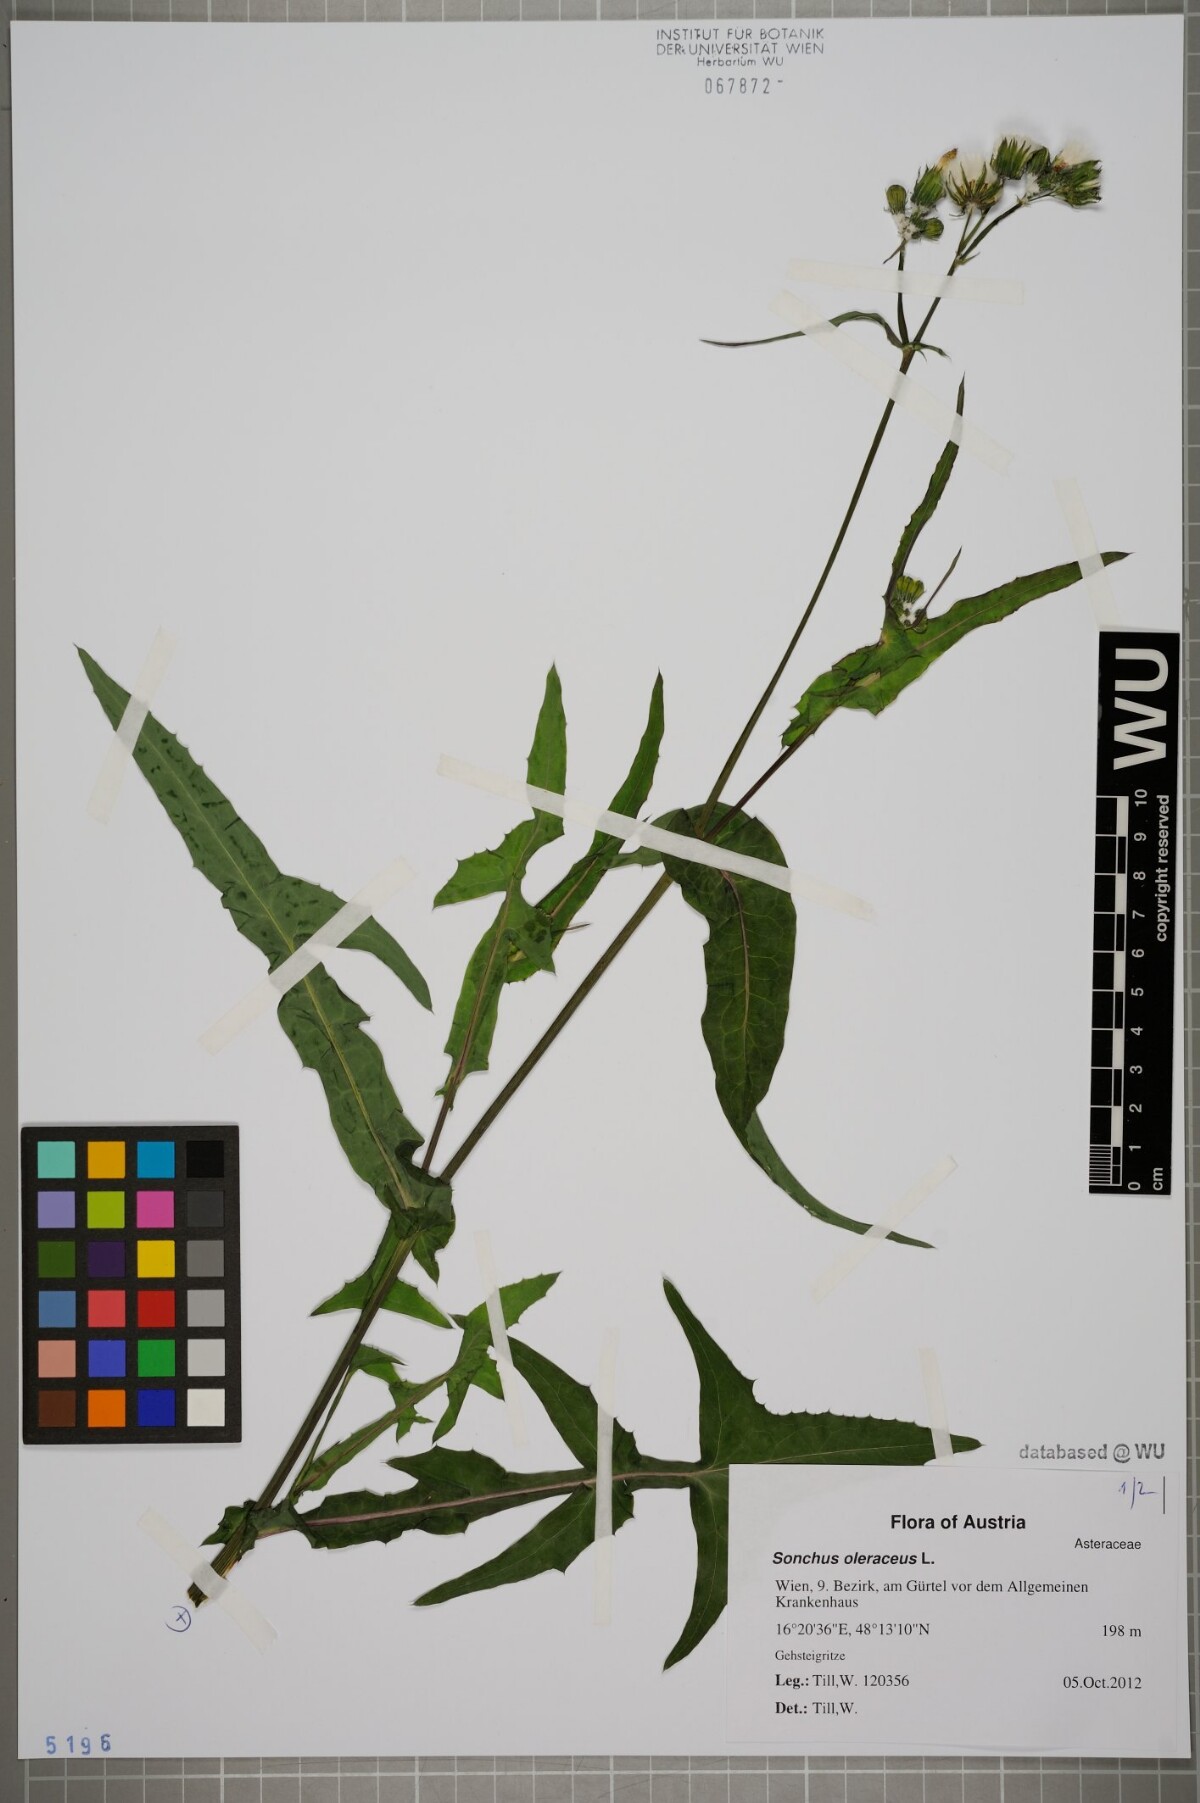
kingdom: Plantae
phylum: Tracheophyta
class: Magnoliopsida
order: Asterales
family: Asteraceae
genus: Sonchus
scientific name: Sonchus oleraceus
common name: Common sowthistle
